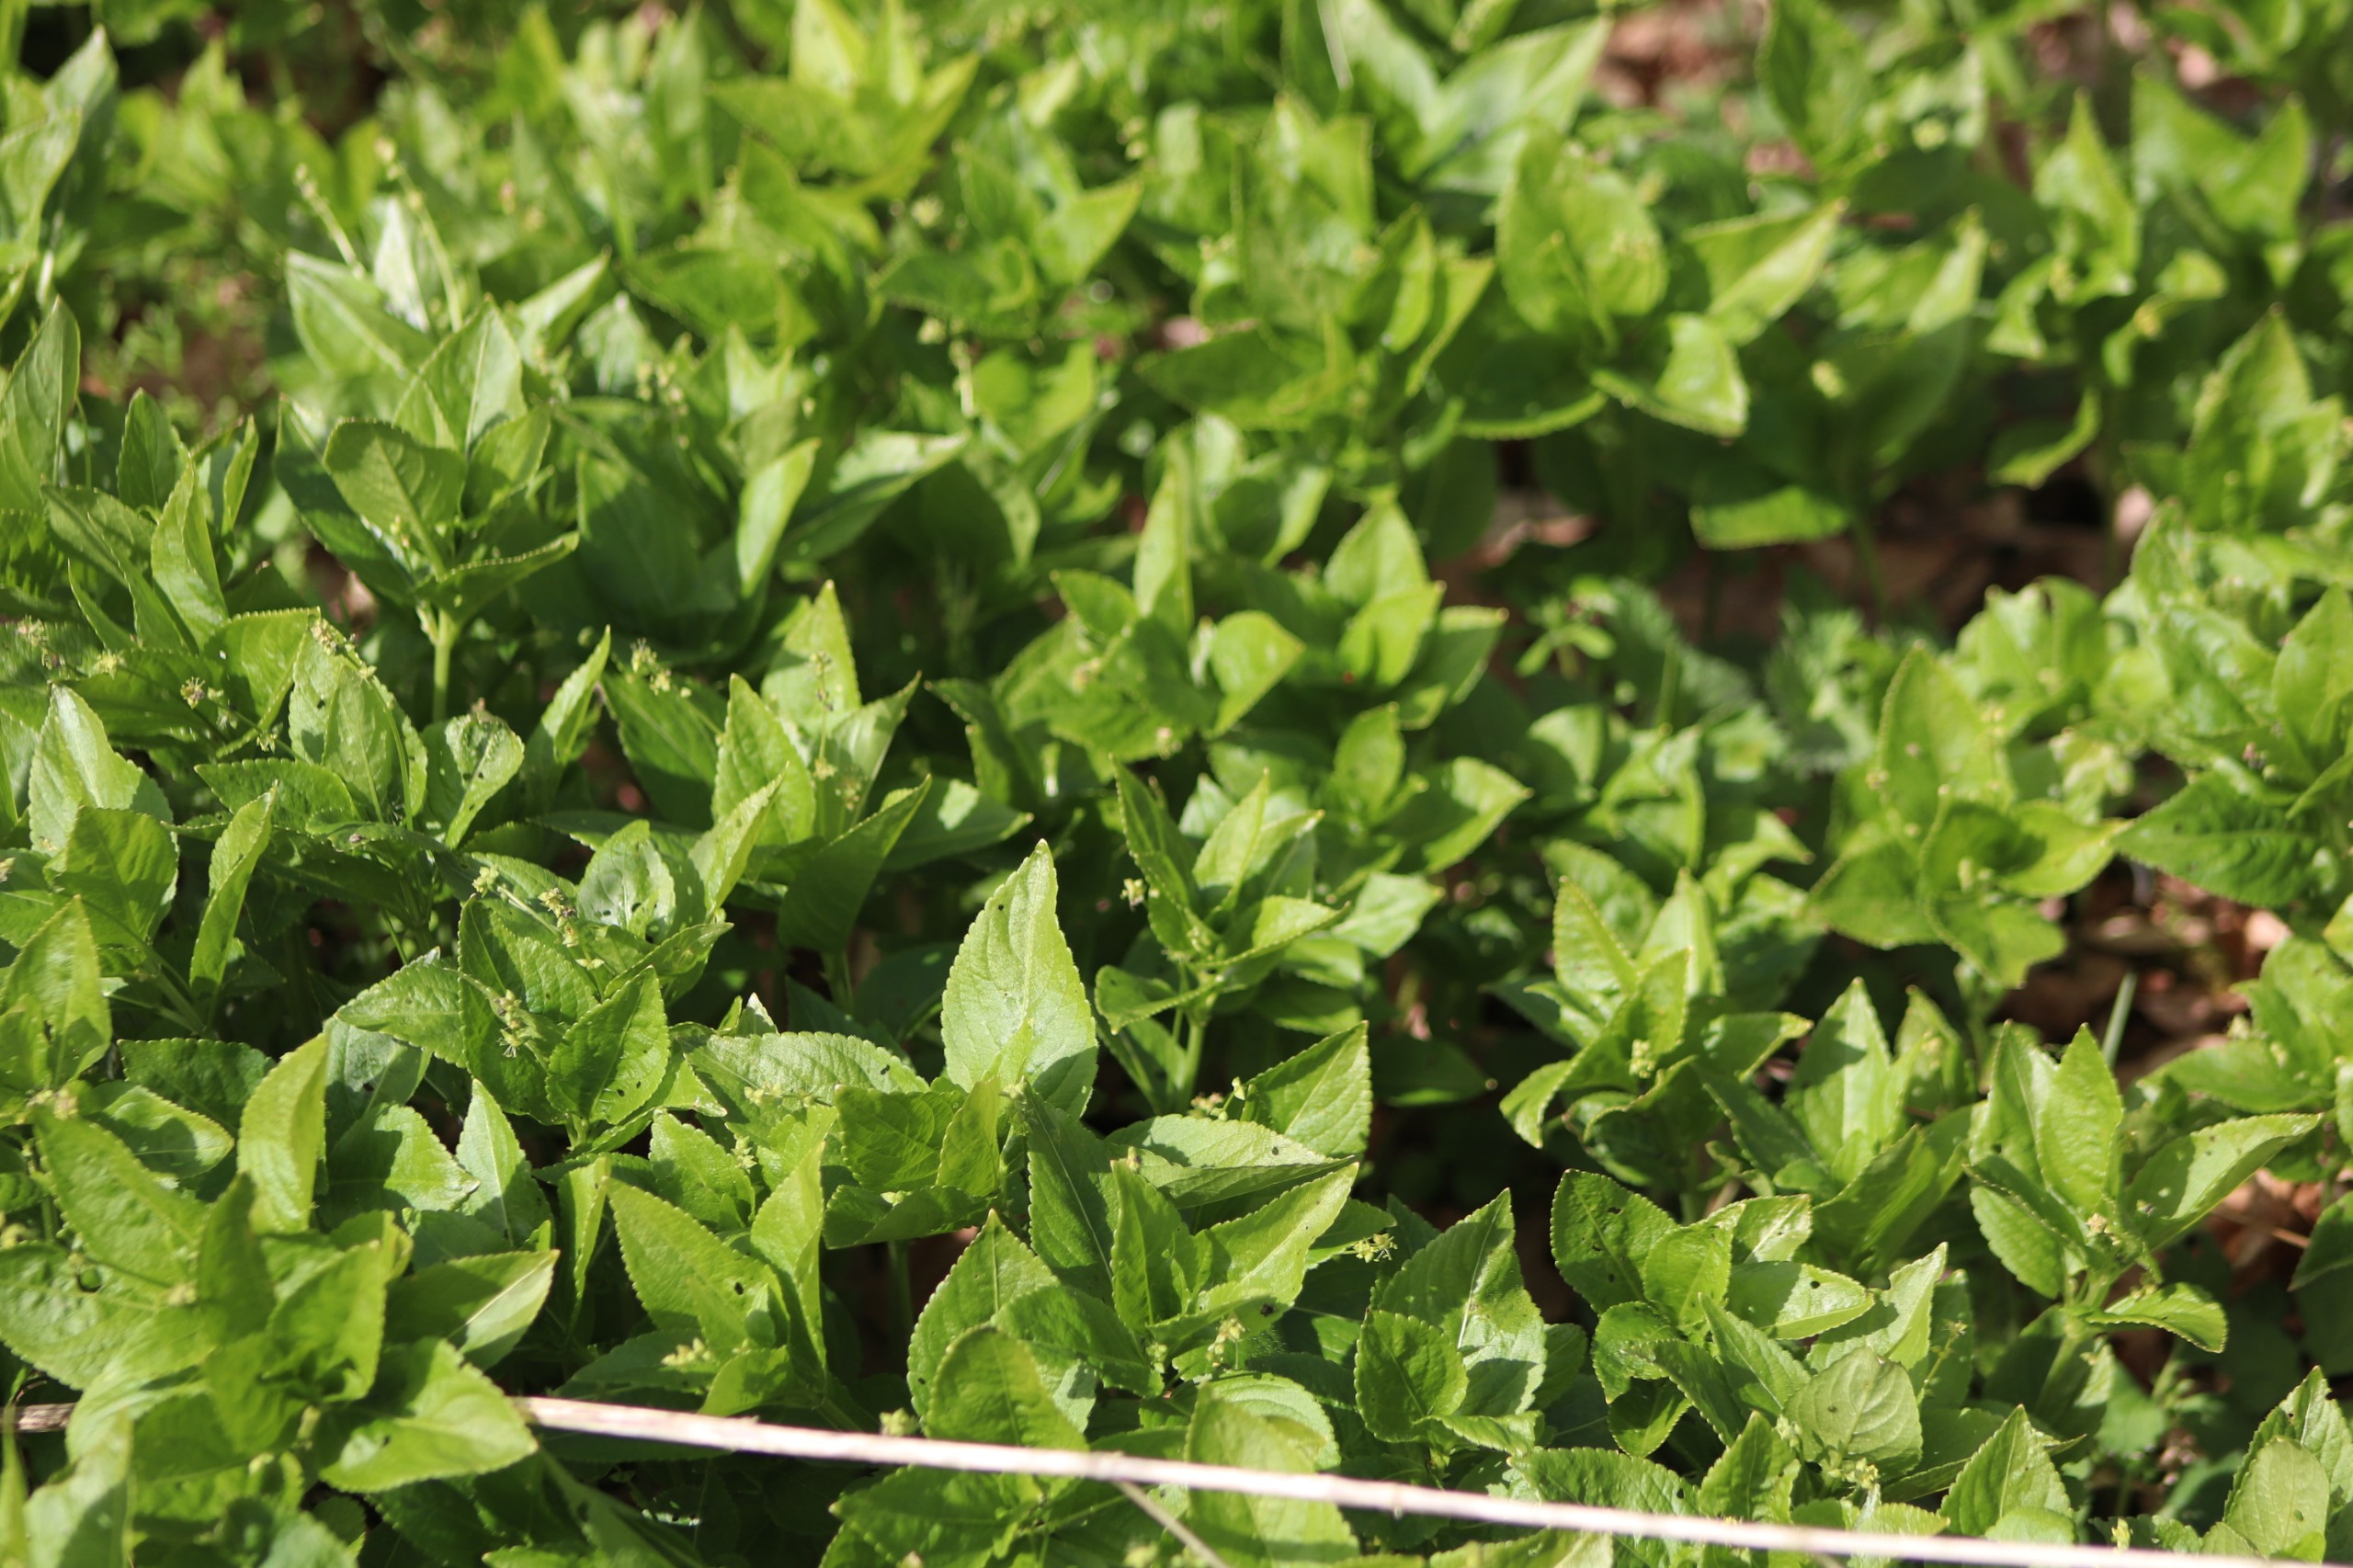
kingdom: Plantae
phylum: Tracheophyta
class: Magnoliopsida
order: Malpighiales
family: Euphorbiaceae
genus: Mercurialis
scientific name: Mercurialis perennis
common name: Almindelig bingelurt
